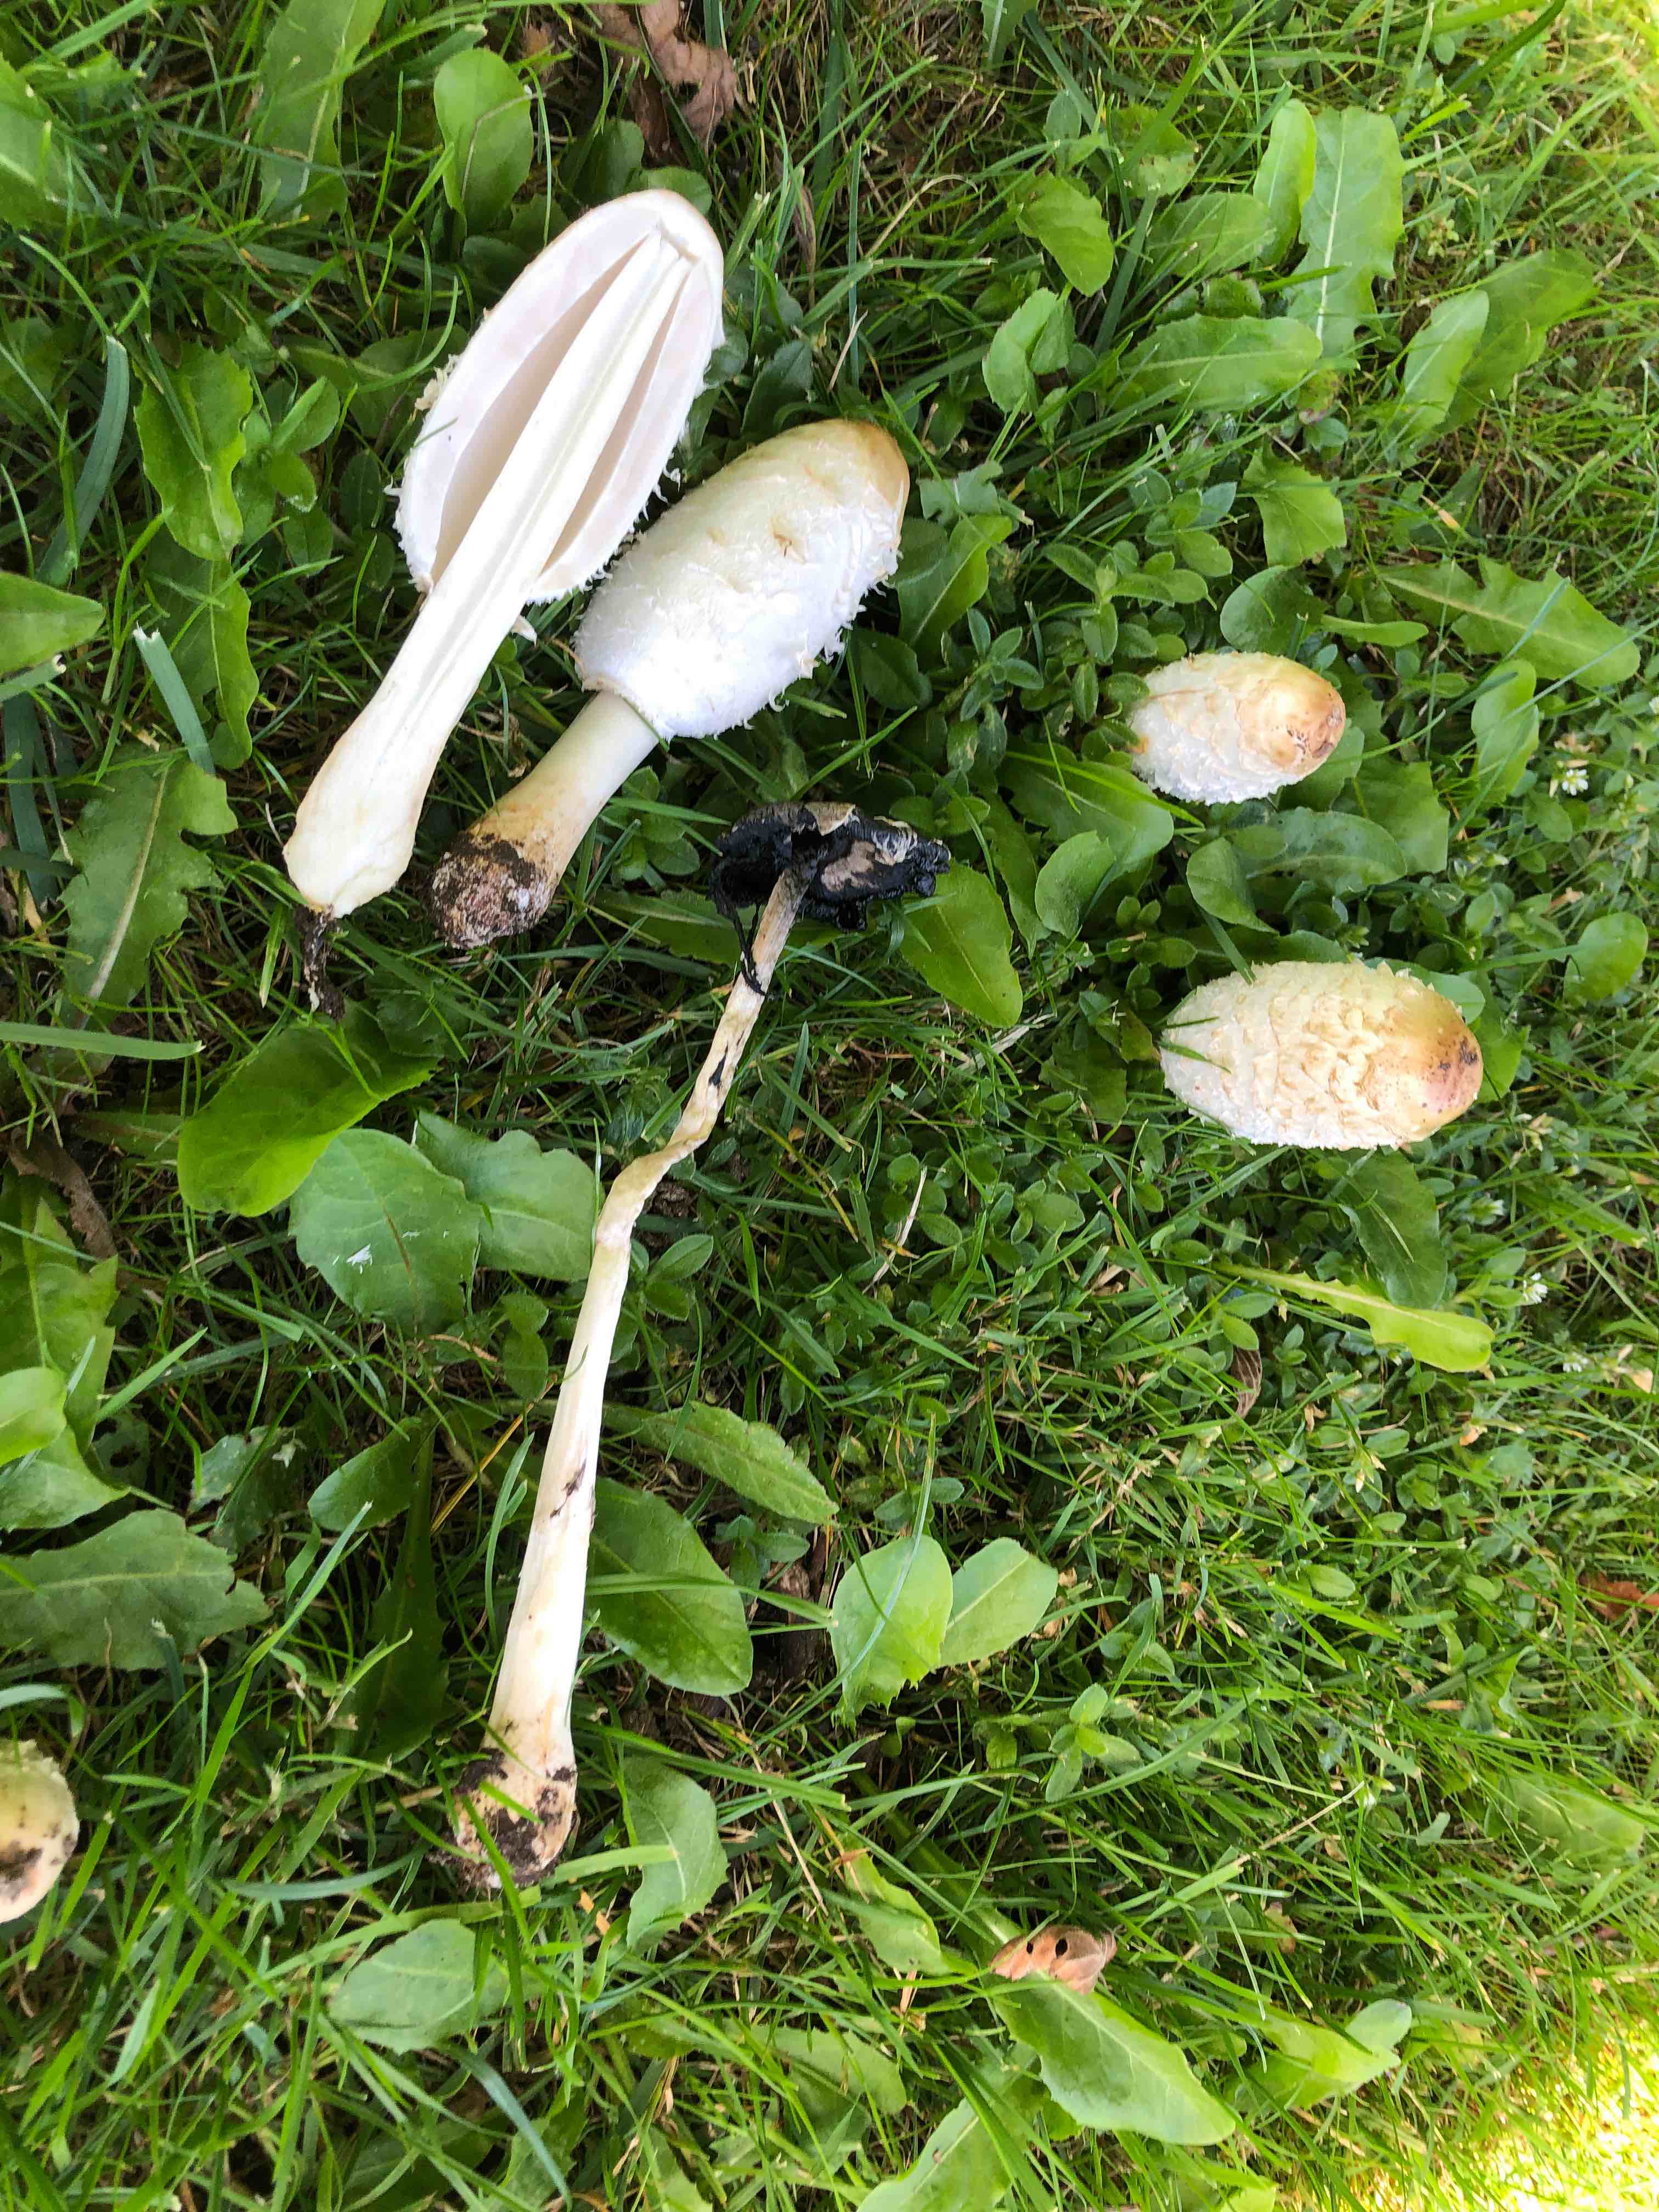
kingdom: Fungi
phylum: Basidiomycota
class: Agaricomycetes
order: Agaricales
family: Agaricaceae
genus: Coprinus
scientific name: Coprinus comatus
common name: stor parykhat
